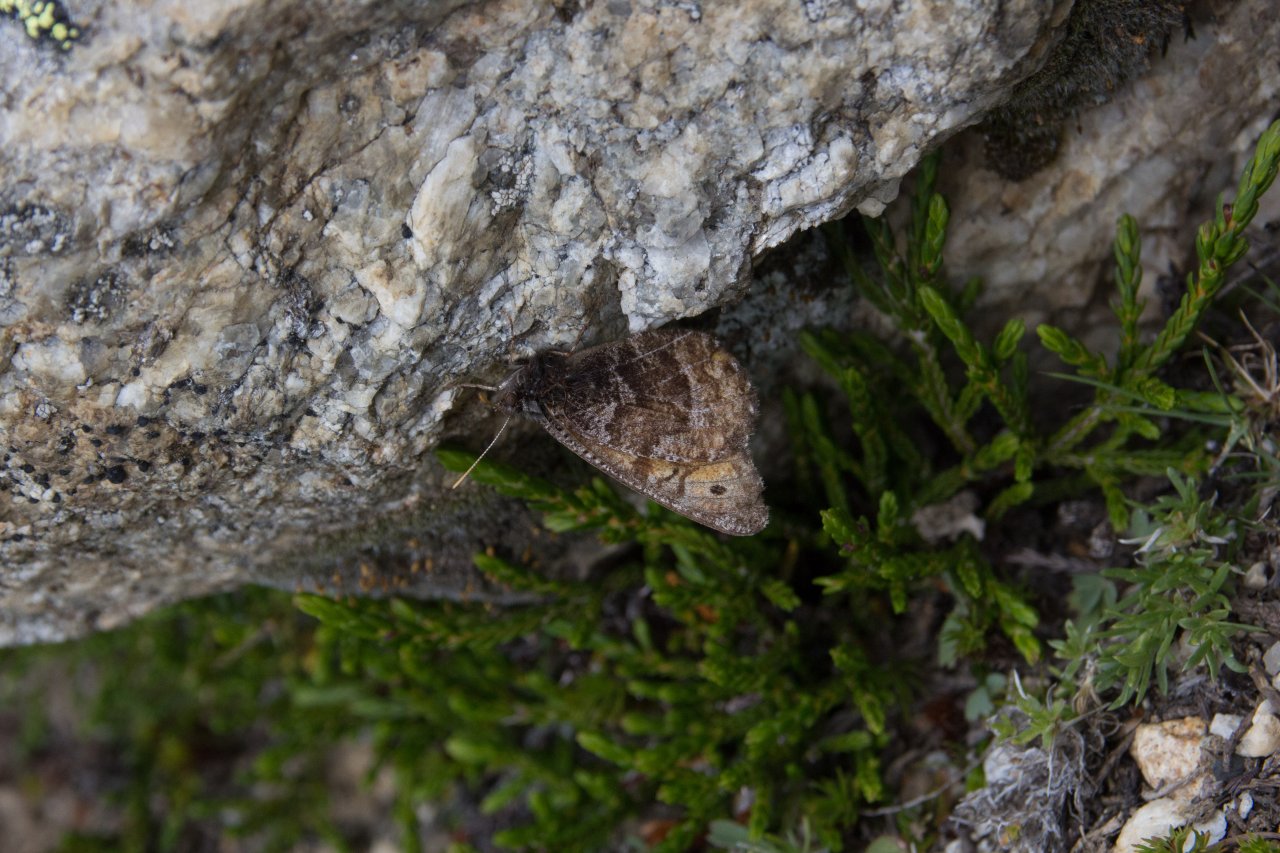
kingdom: Animalia
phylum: Arthropoda
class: Insecta
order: Lepidoptera
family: Nymphalidae
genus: Oeneis
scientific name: Oeneis chryxus
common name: Chryxus Arctic
